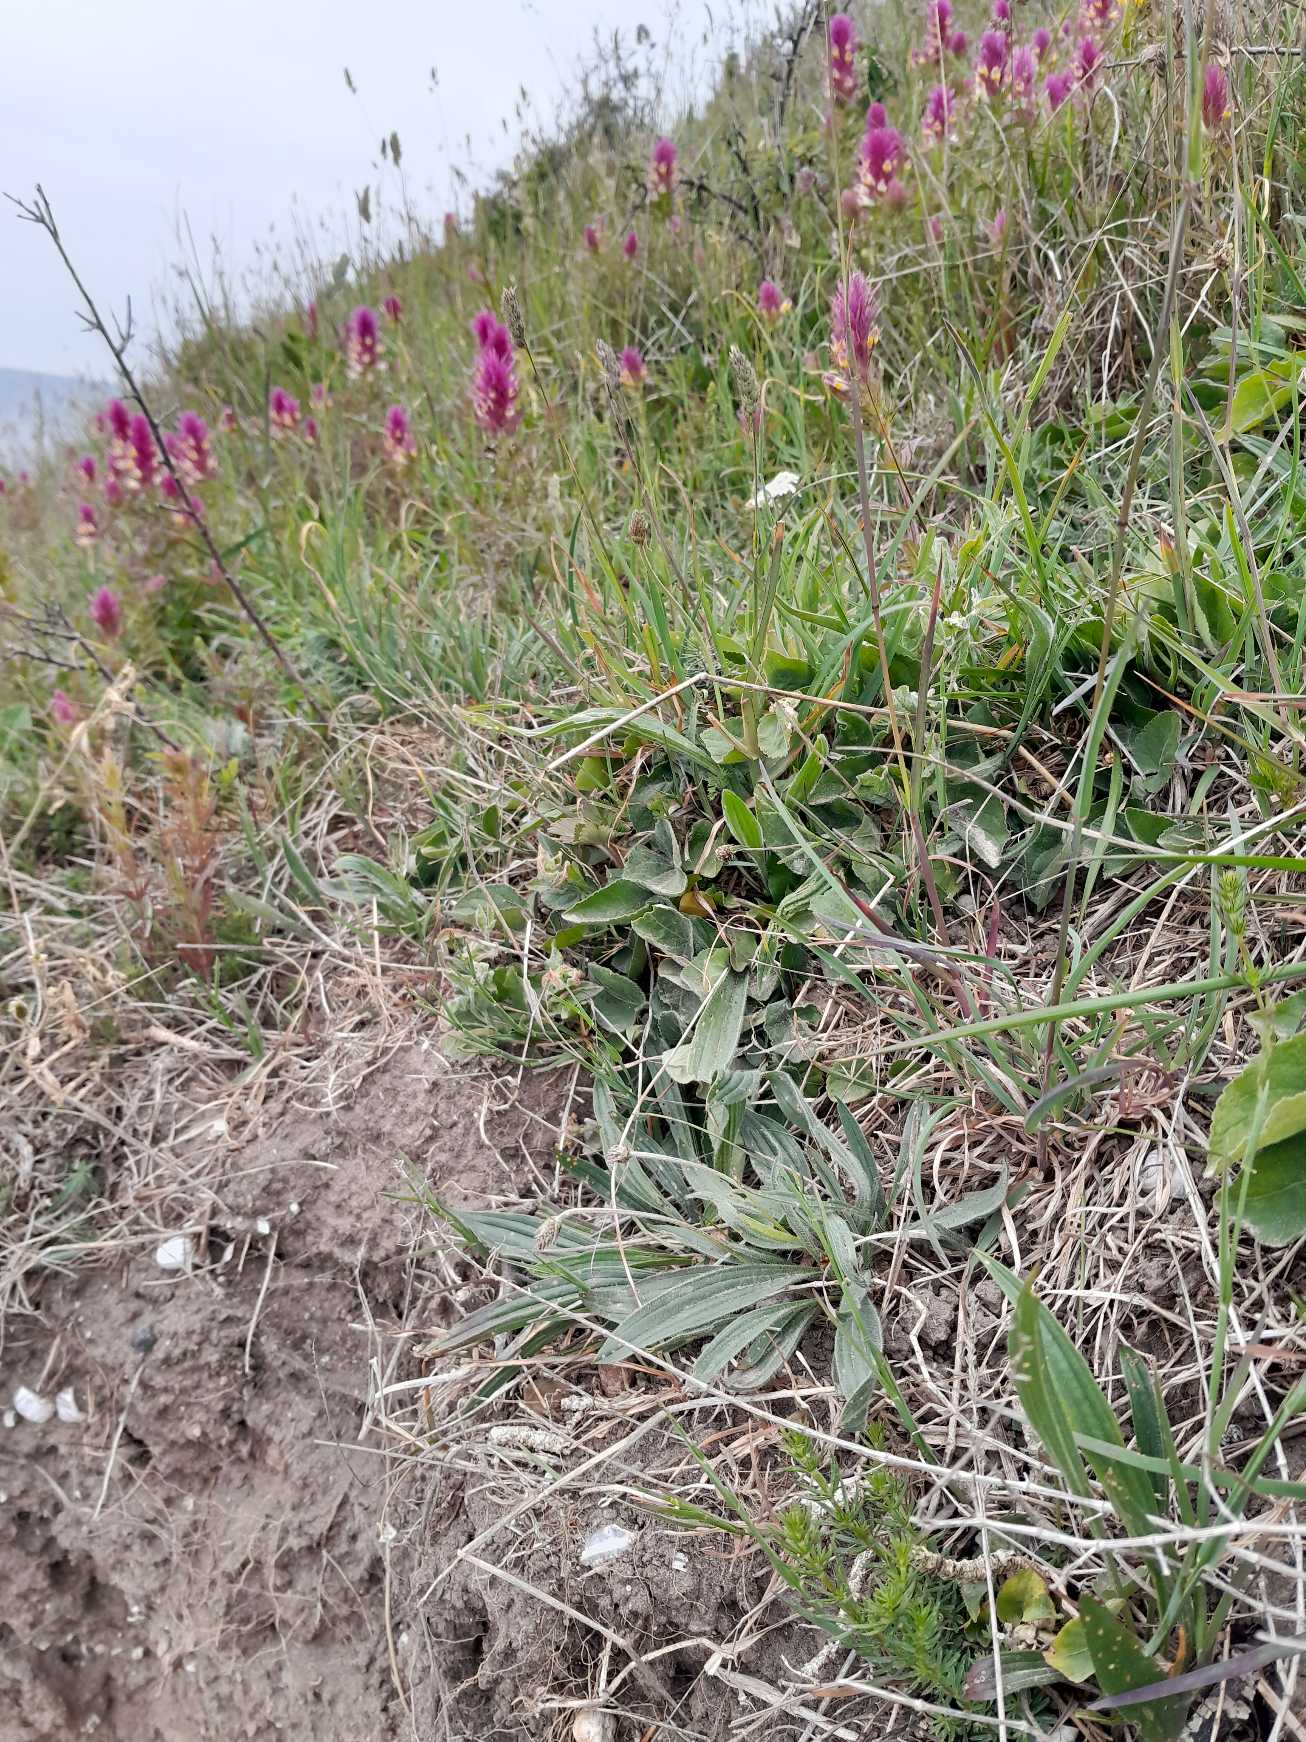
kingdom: Plantae
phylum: Tracheophyta
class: Magnoliopsida
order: Lamiales
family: Orobanchaceae
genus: Melampyrum
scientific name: Melampyrum arvense
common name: Ager-kohvede
